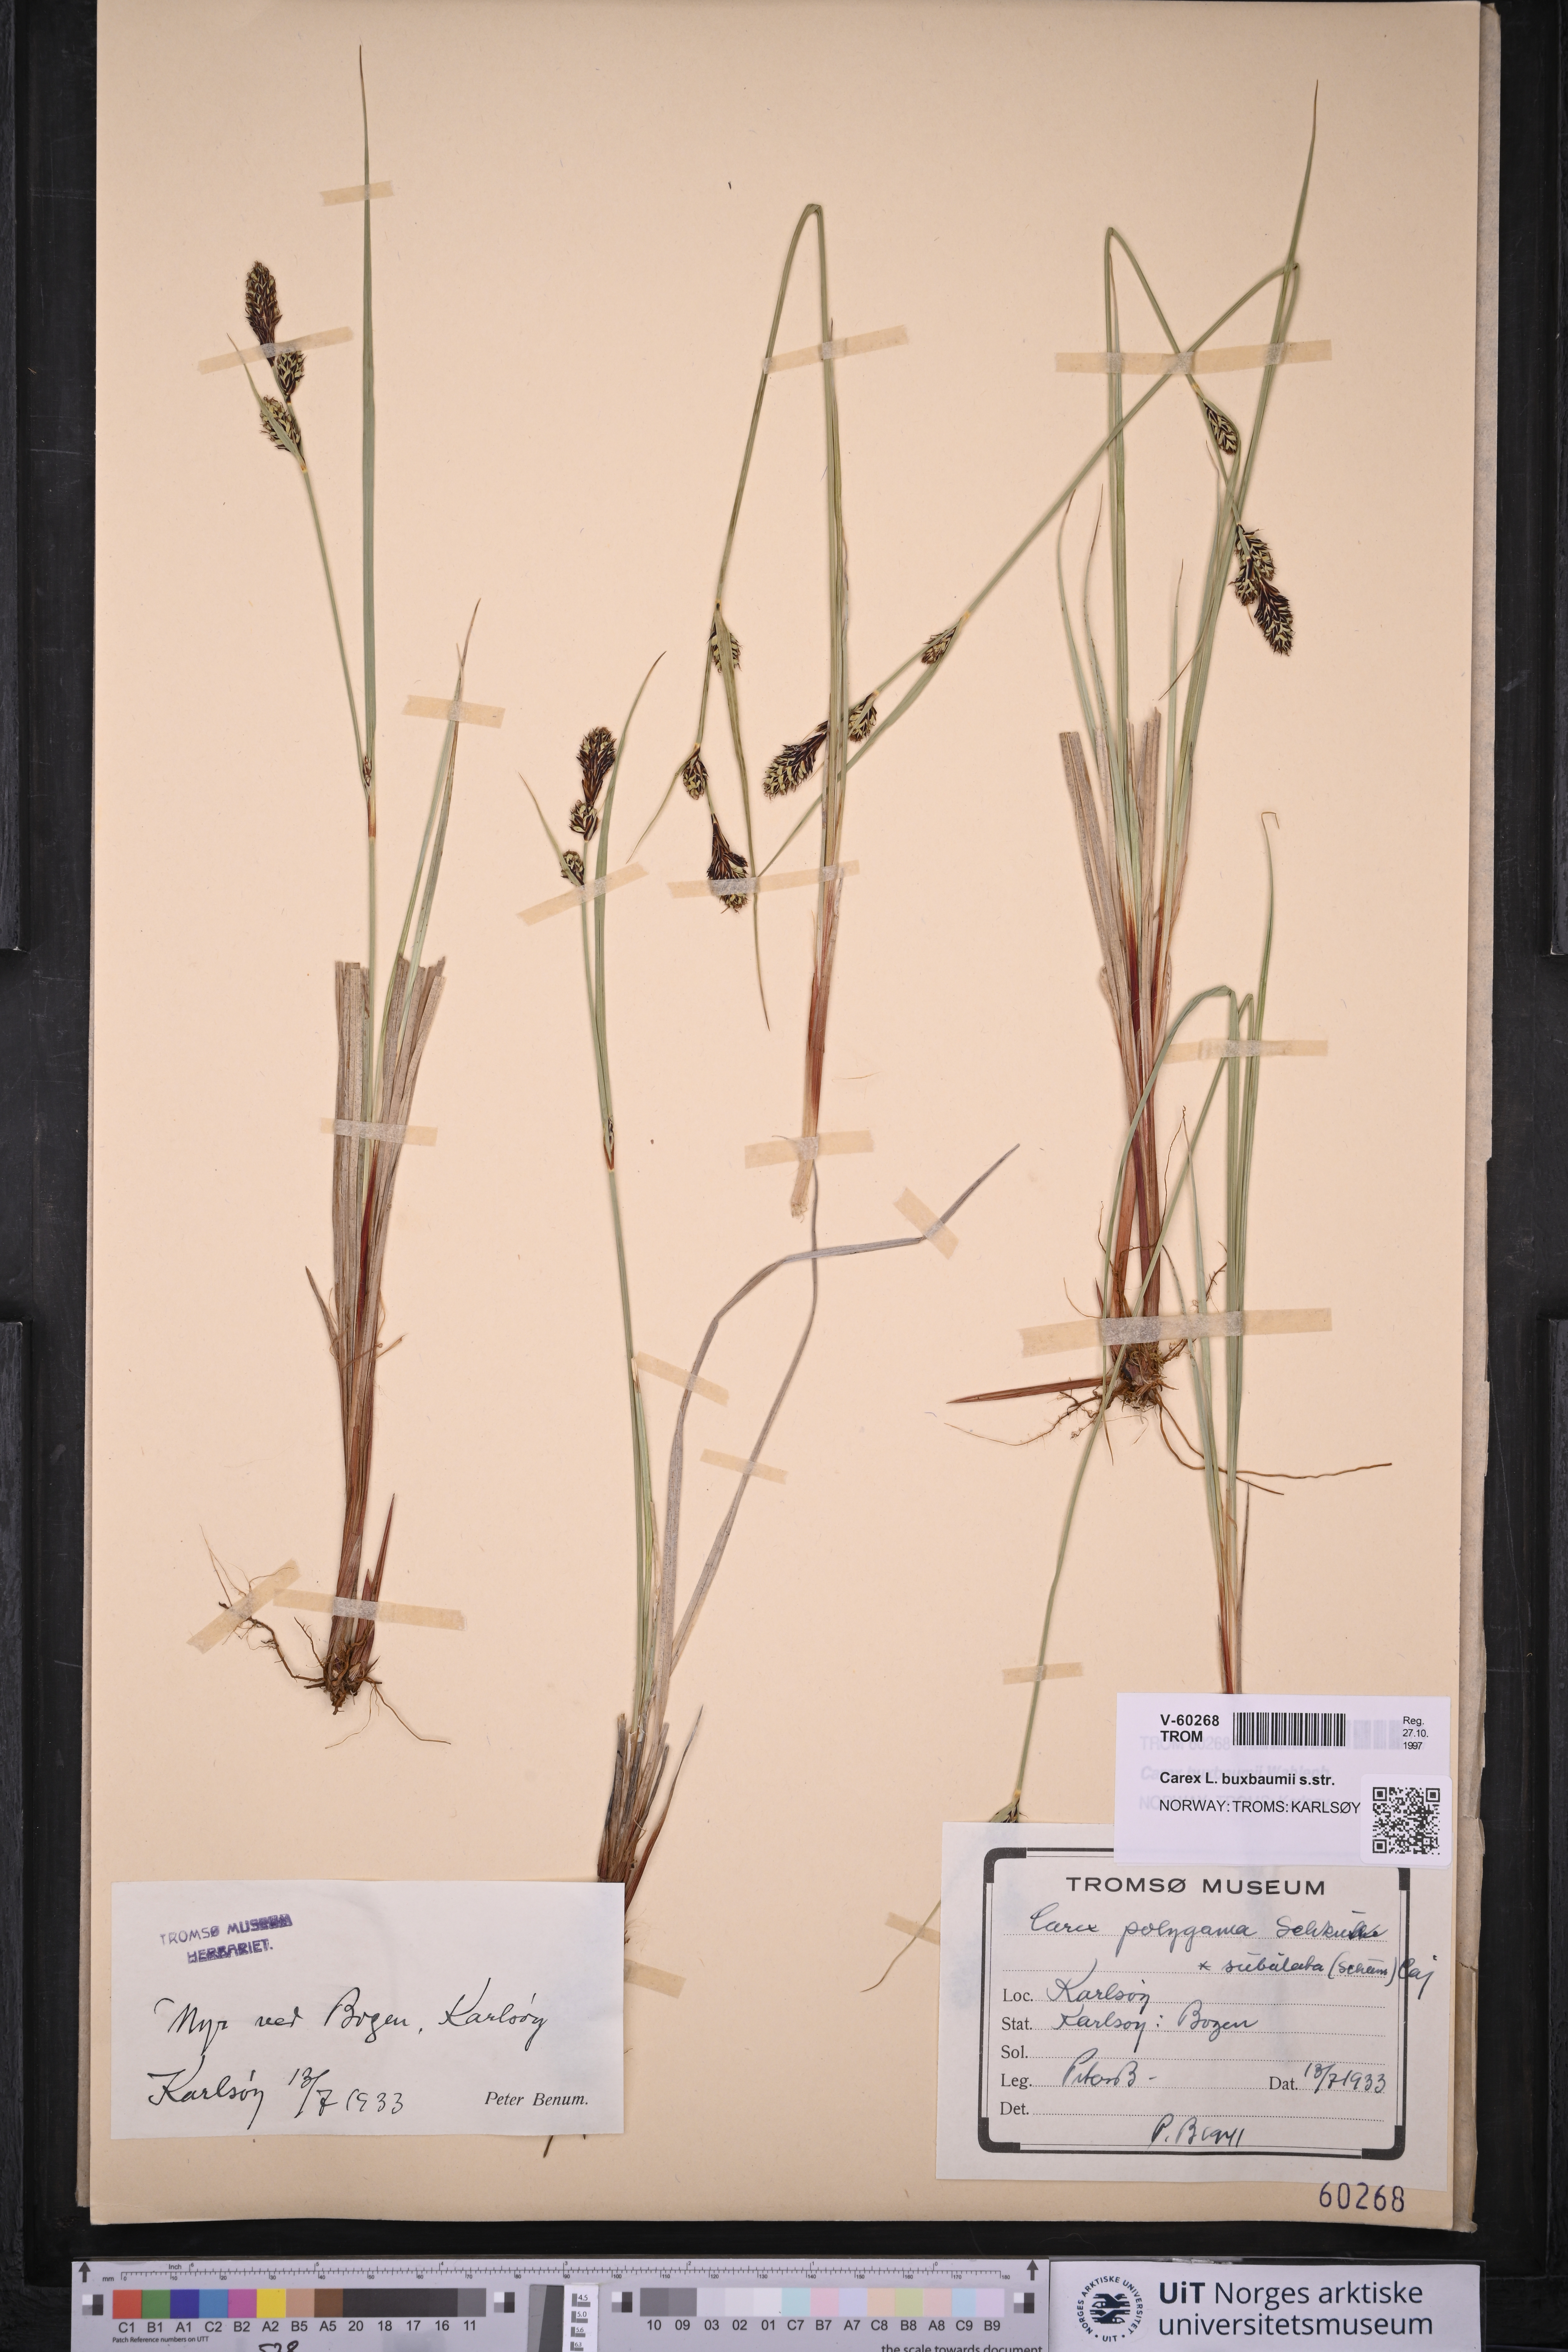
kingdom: Plantae
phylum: Tracheophyta
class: Liliopsida
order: Poales
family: Cyperaceae
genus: Carex
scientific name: Carex buxbaumii
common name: Club sedge
